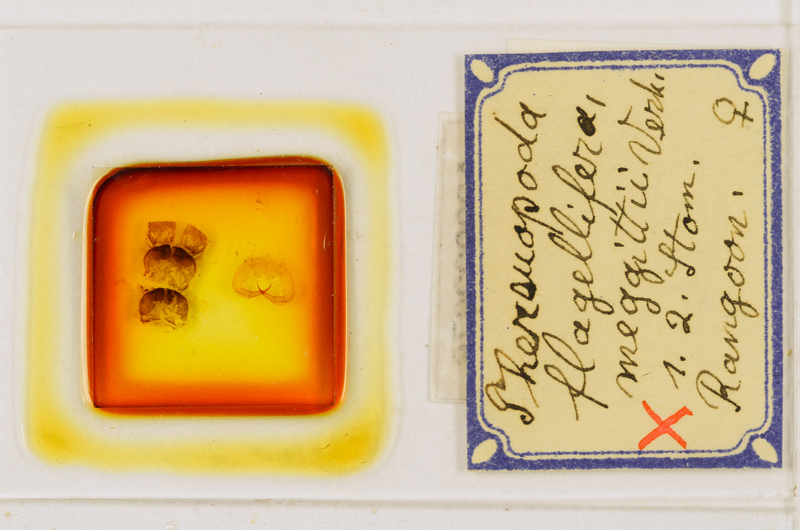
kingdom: Animalia
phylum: Arthropoda
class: Chilopoda
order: Scutigeromorpha
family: Scutigeridae
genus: Thereuopoda
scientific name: Thereuopoda longicornis
